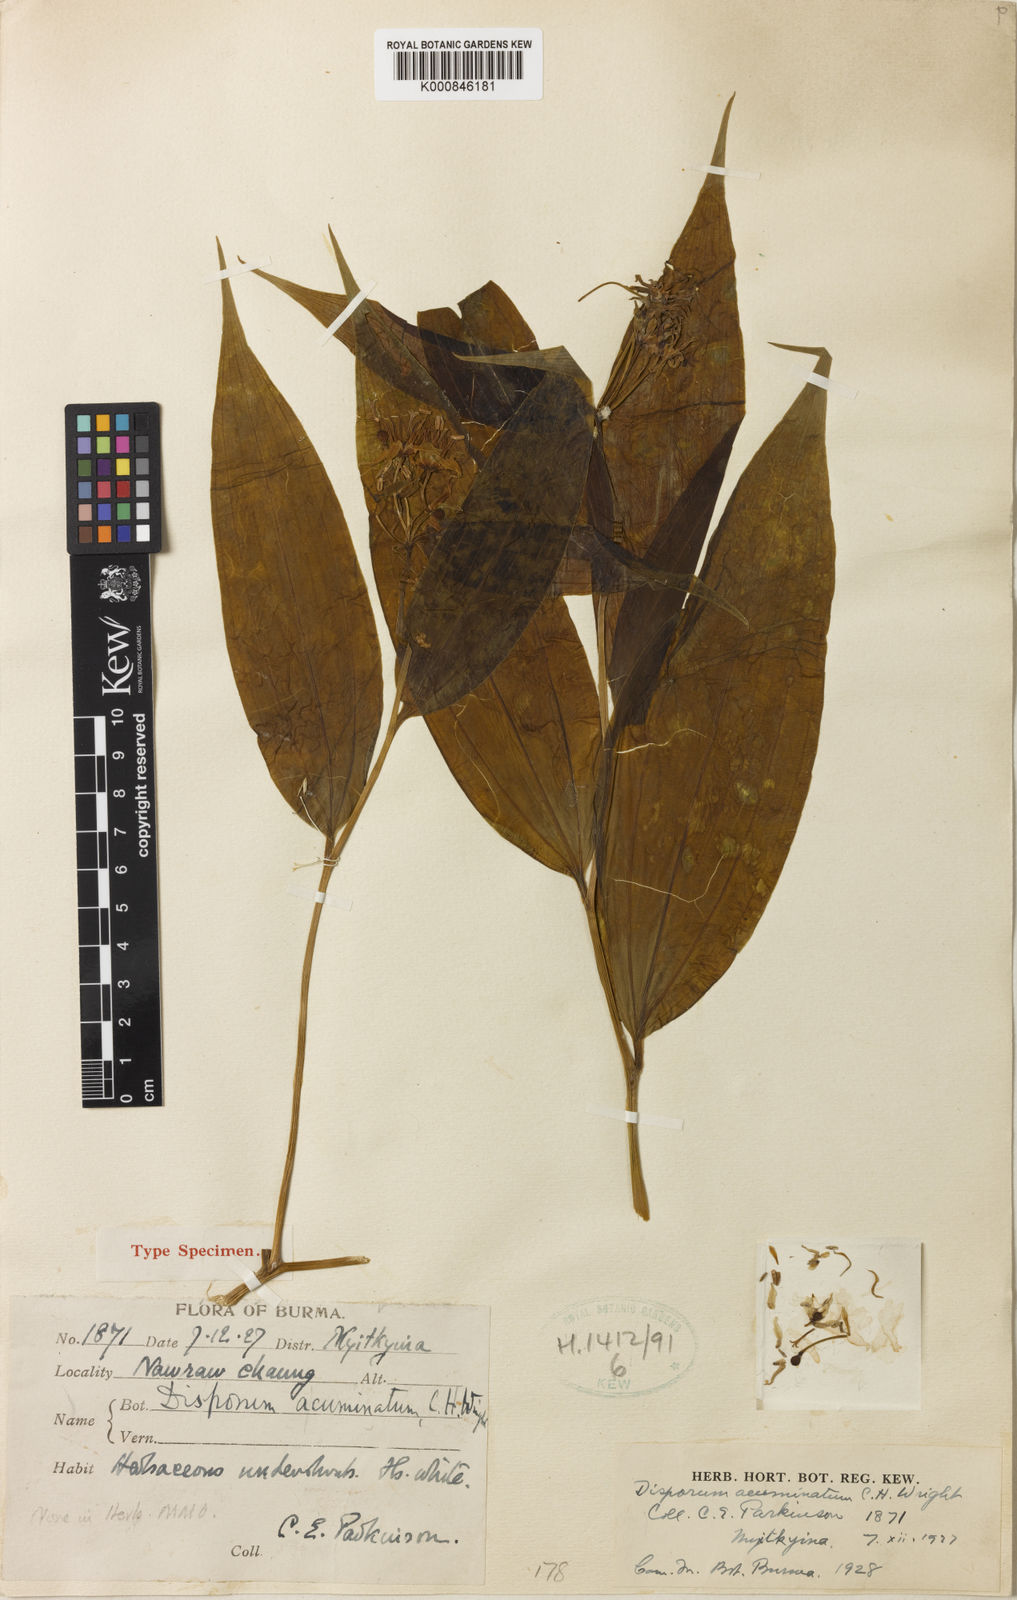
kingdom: Plantae
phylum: Tracheophyta
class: Liliopsida
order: Liliales
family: Colchicaceae
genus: Disporum
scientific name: Disporum acuminatum
